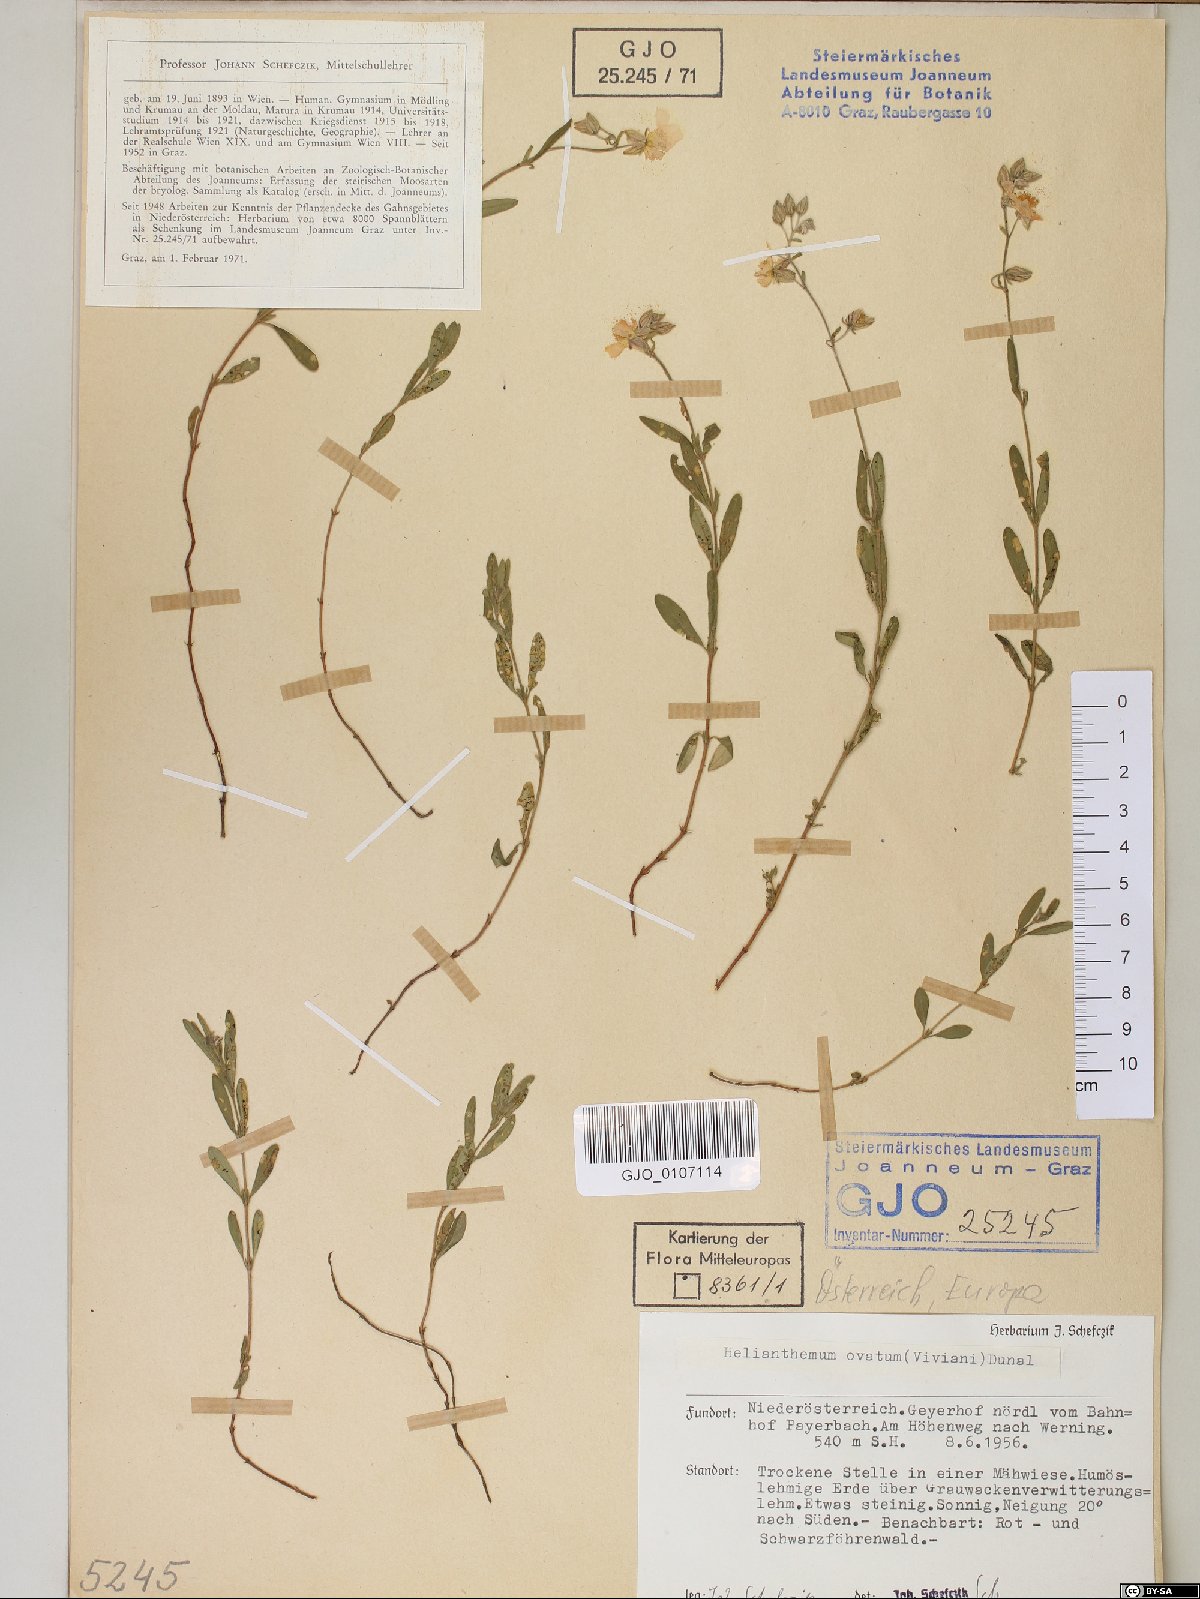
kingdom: Plantae
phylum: Tracheophyta
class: Magnoliopsida
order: Malvales
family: Cistaceae
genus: Helianthemum
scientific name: Helianthemum nummularium
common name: Common rock-rose
